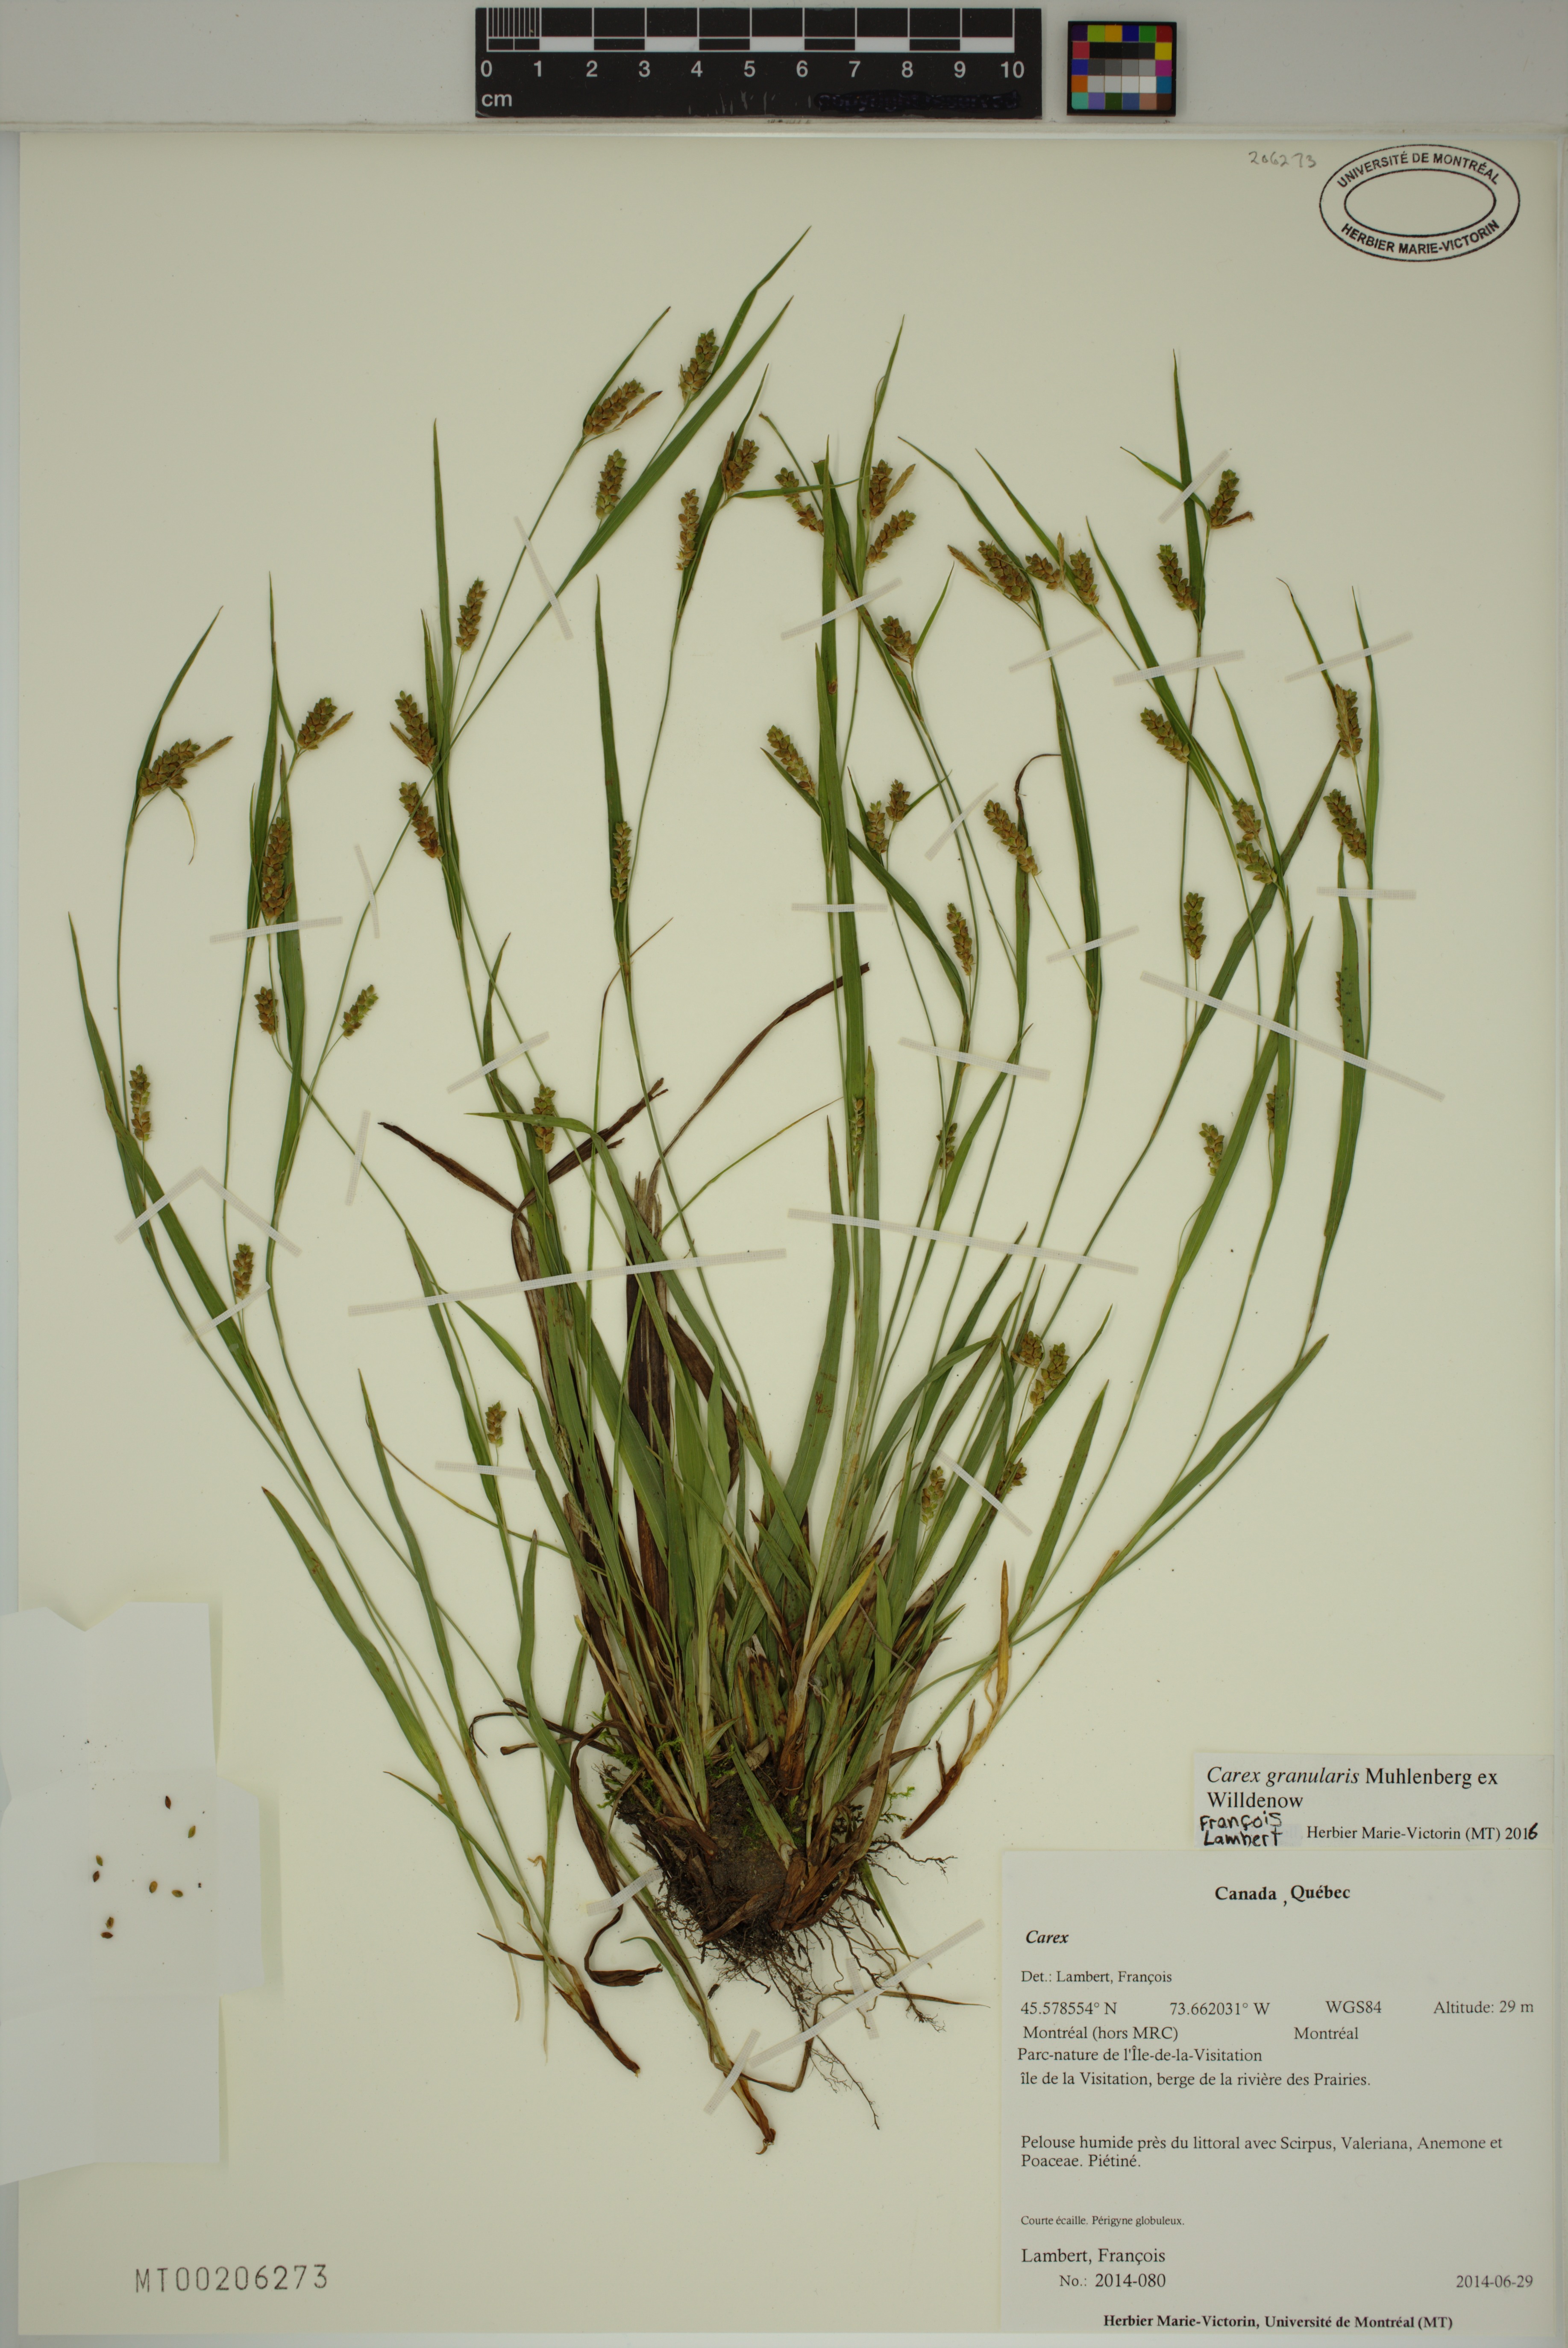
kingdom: Plantae
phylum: Tracheophyta
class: Liliopsida
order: Poales
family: Cyperaceae
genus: Carex
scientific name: Carex granularis
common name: Granular sedge
